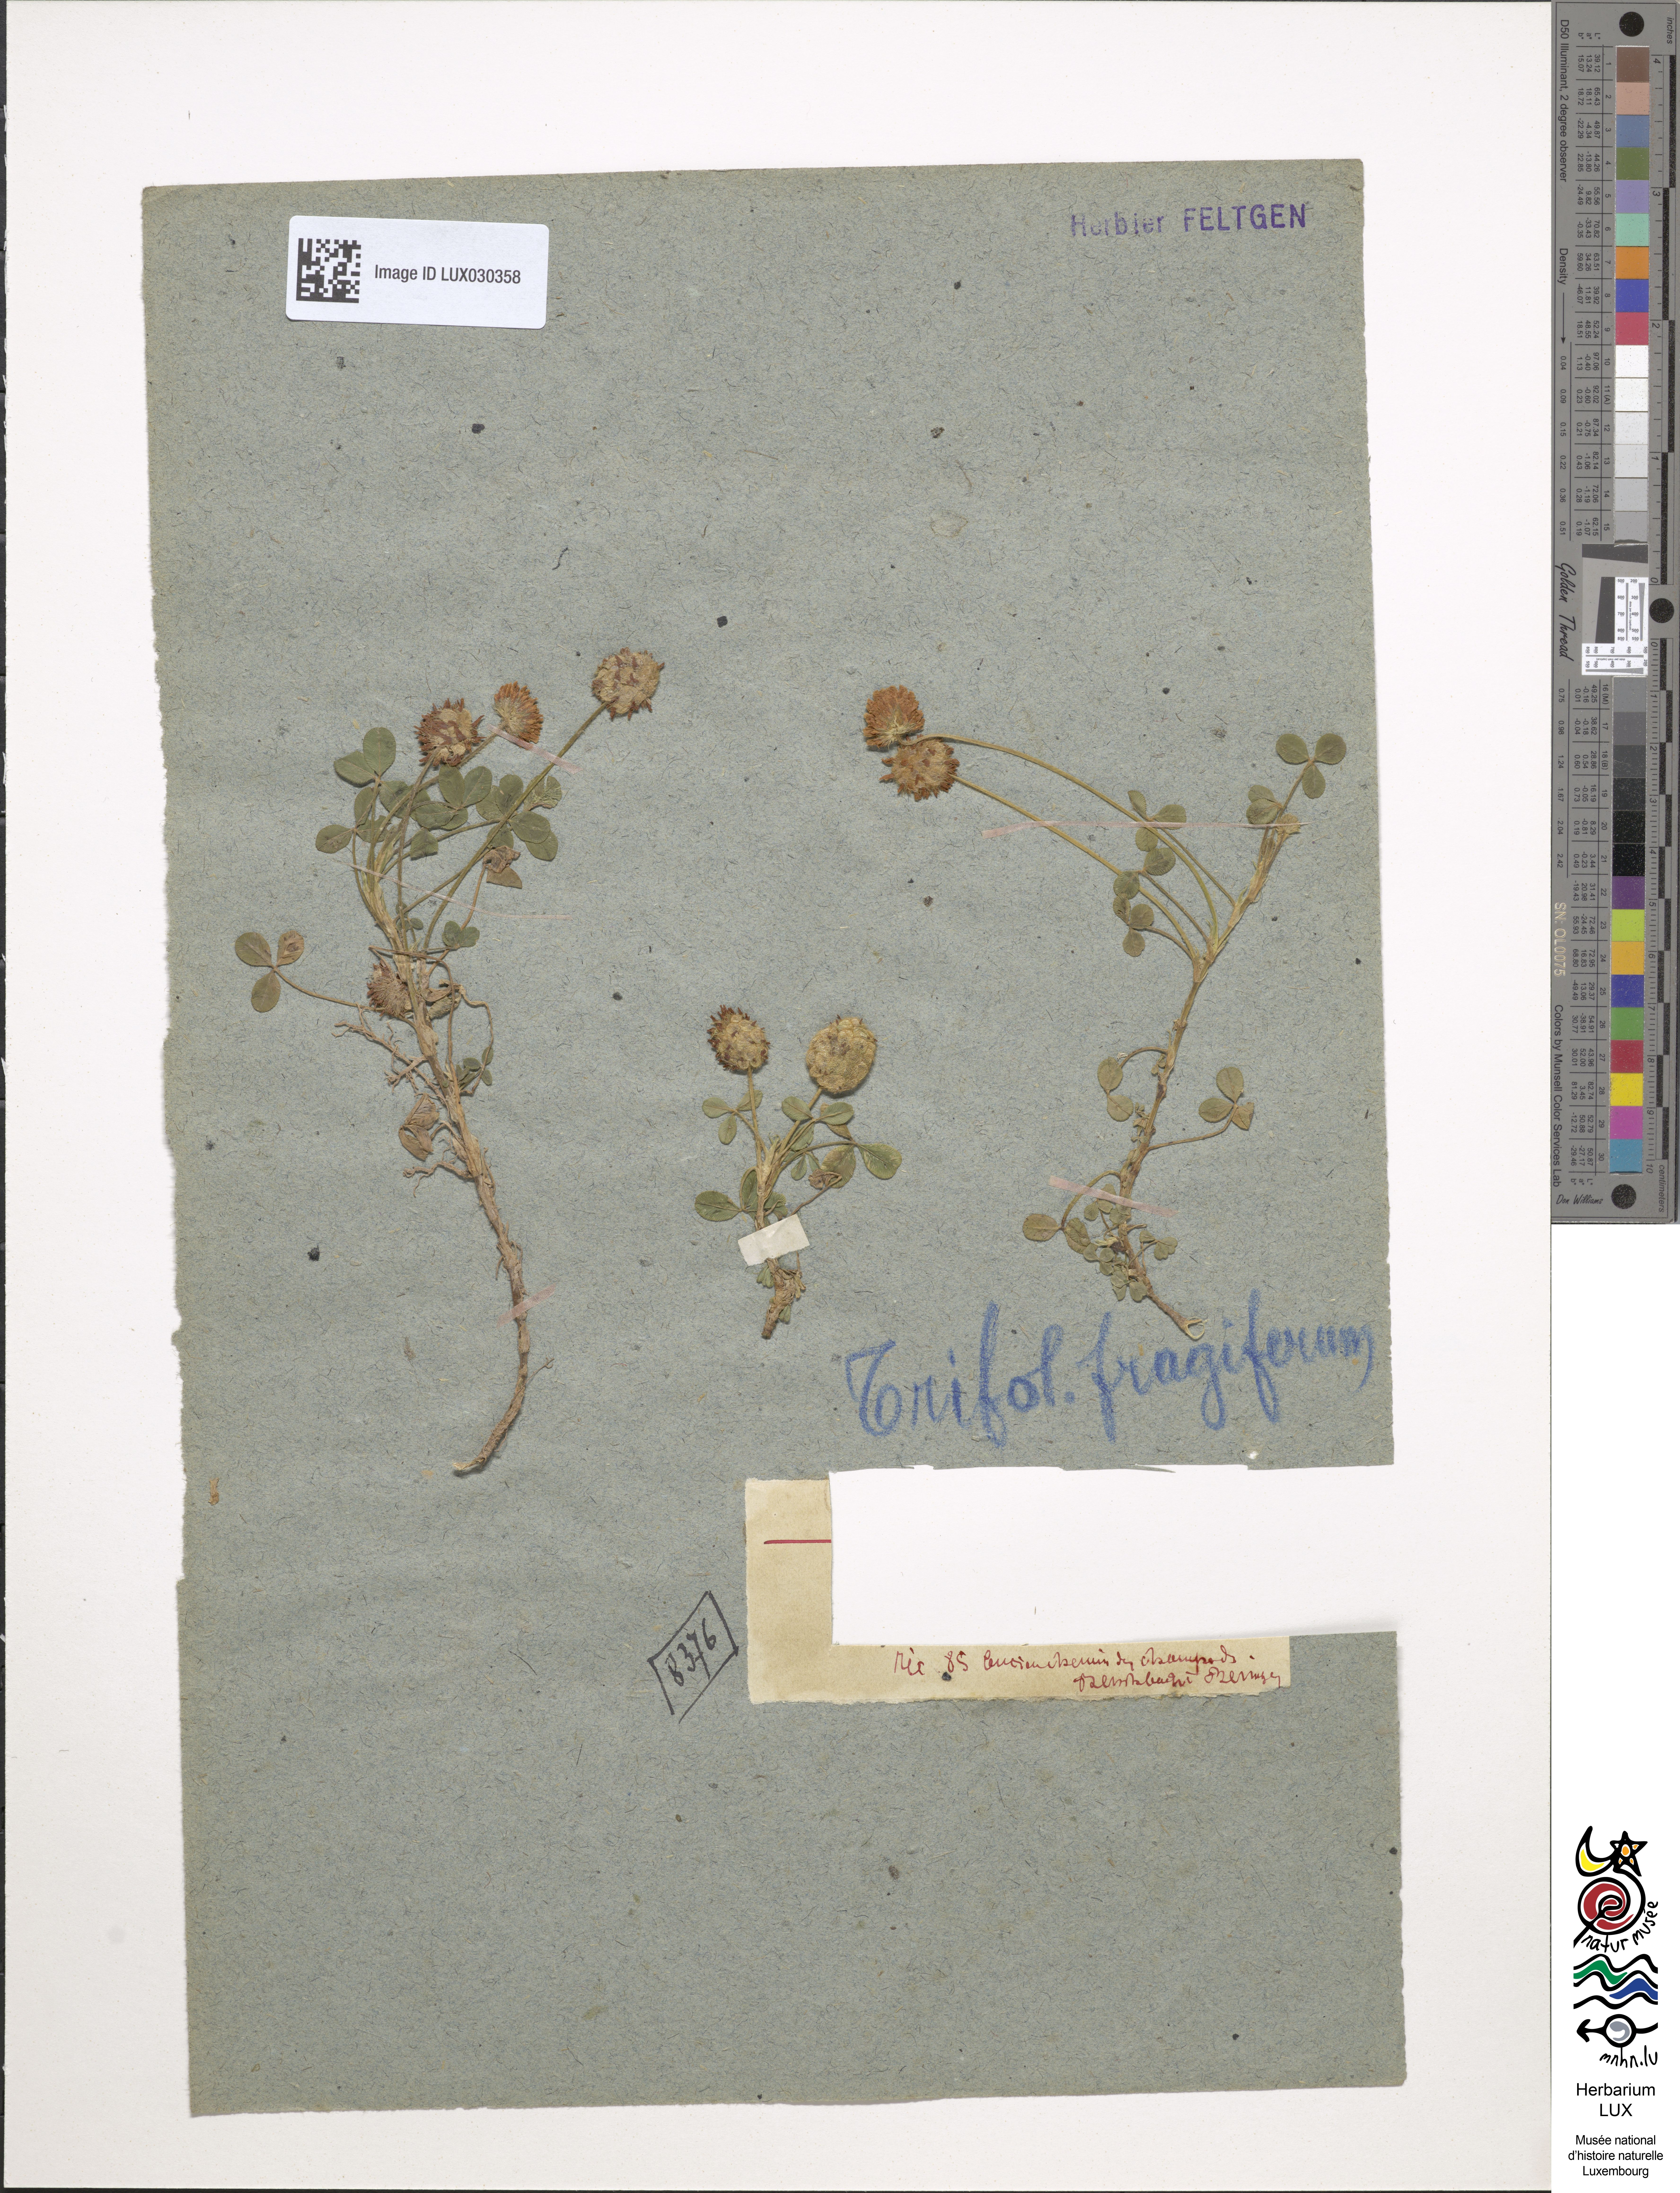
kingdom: Plantae
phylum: Tracheophyta
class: Magnoliopsida
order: Fabales
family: Fabaceae
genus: Trifolium
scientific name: Trifolium fragiferum
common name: Strawberry clover
